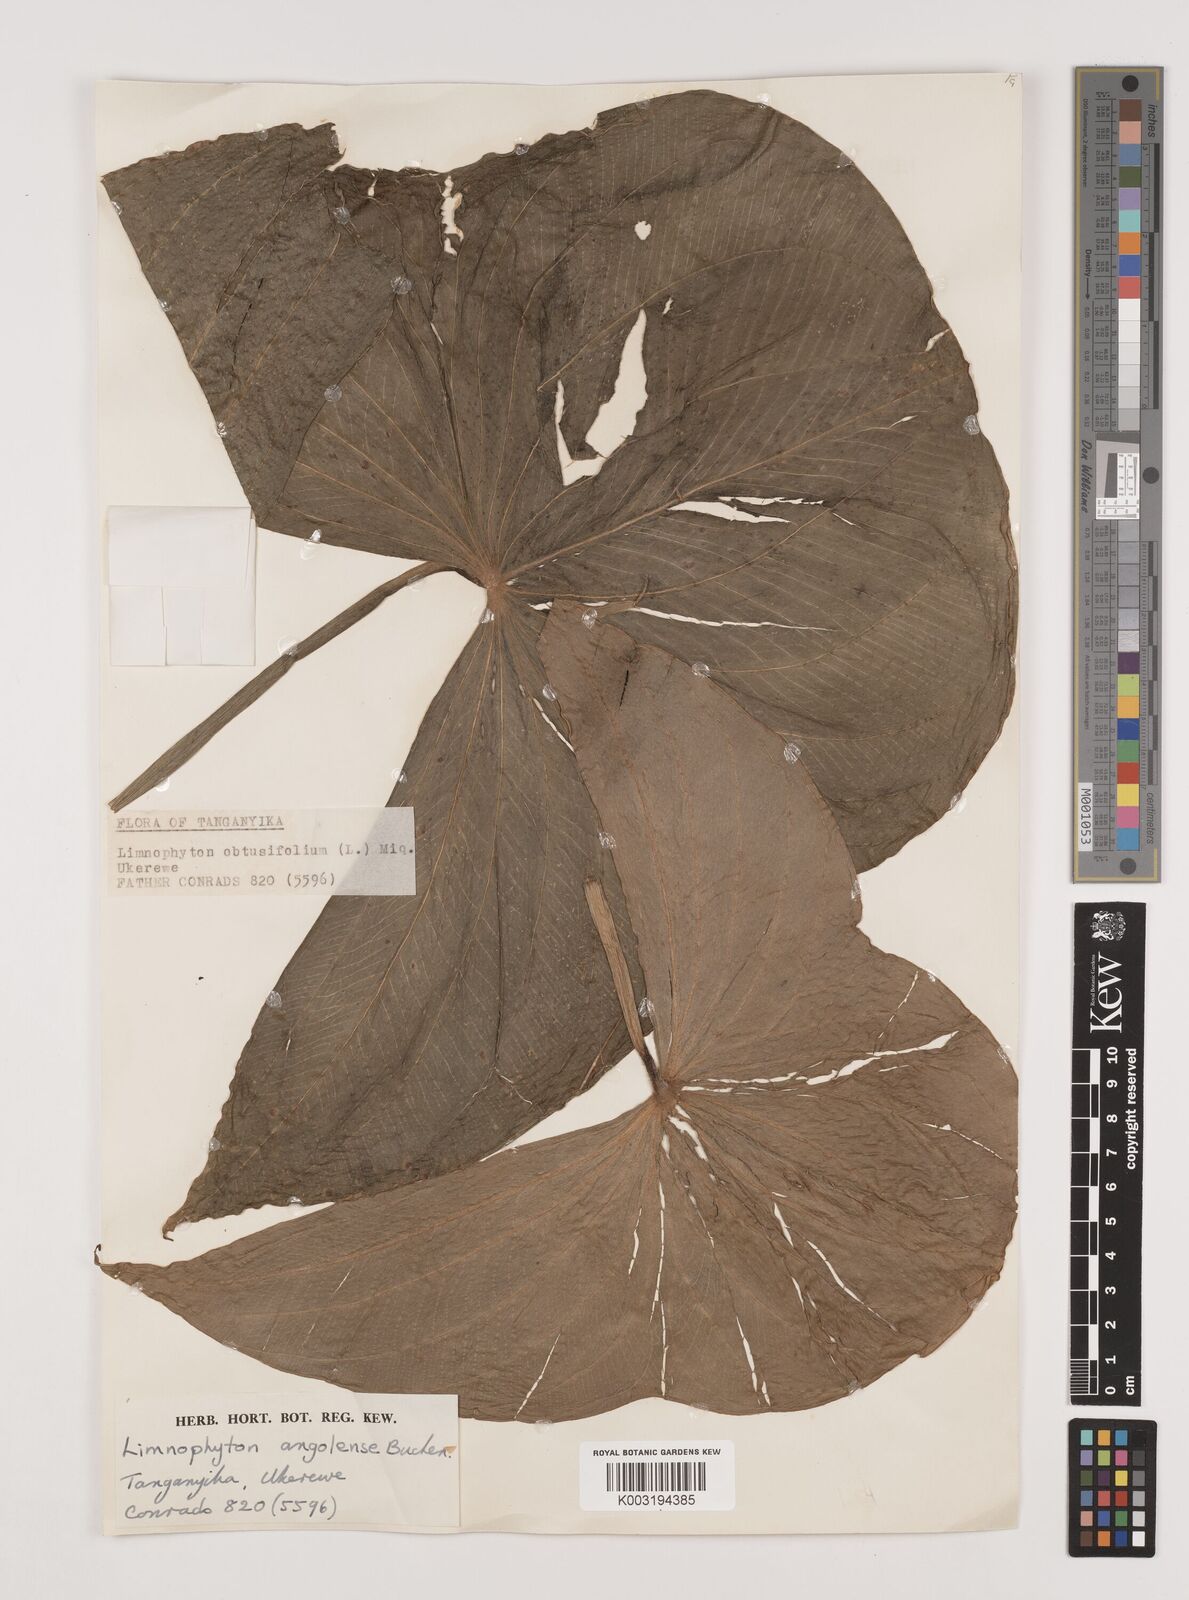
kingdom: Plantae
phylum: Tracheophyta
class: Liliopsida
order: Alismatales
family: Alismataceae
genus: Limnophyton
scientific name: Limnophyton angolense
